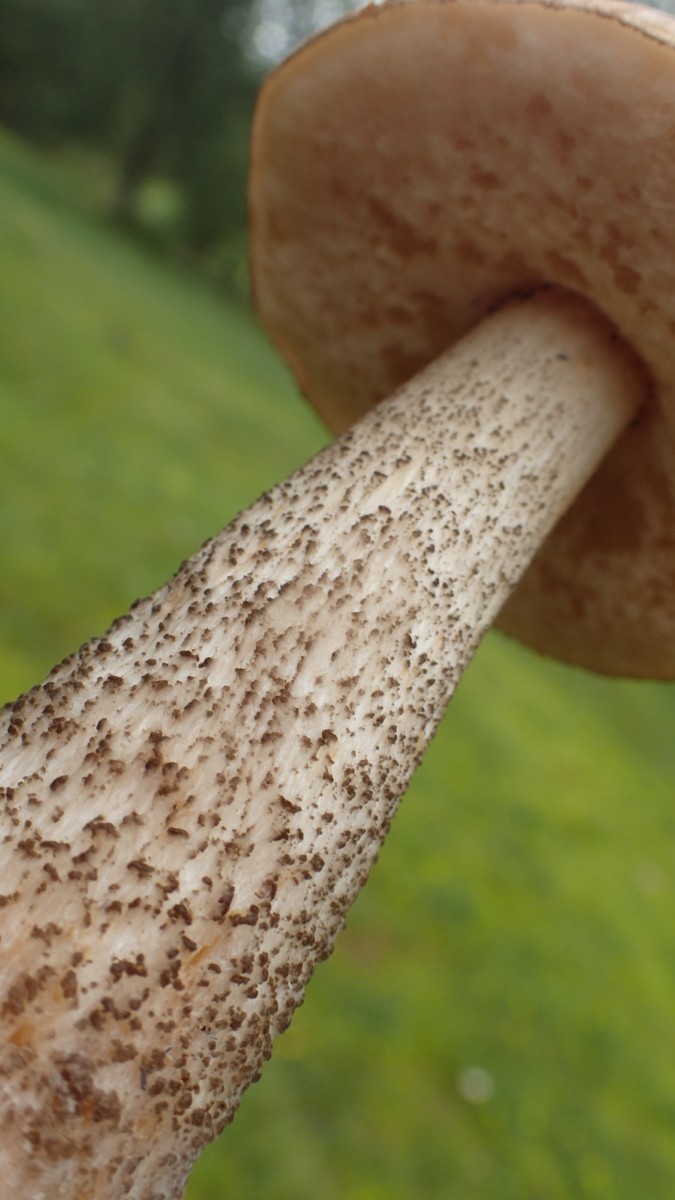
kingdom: Fungi
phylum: Basidiomycota
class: Agaricomycetes
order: Boletales
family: Boletaceae
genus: Leccinum
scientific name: Leccinum scabrum
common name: brun skælrørhat
